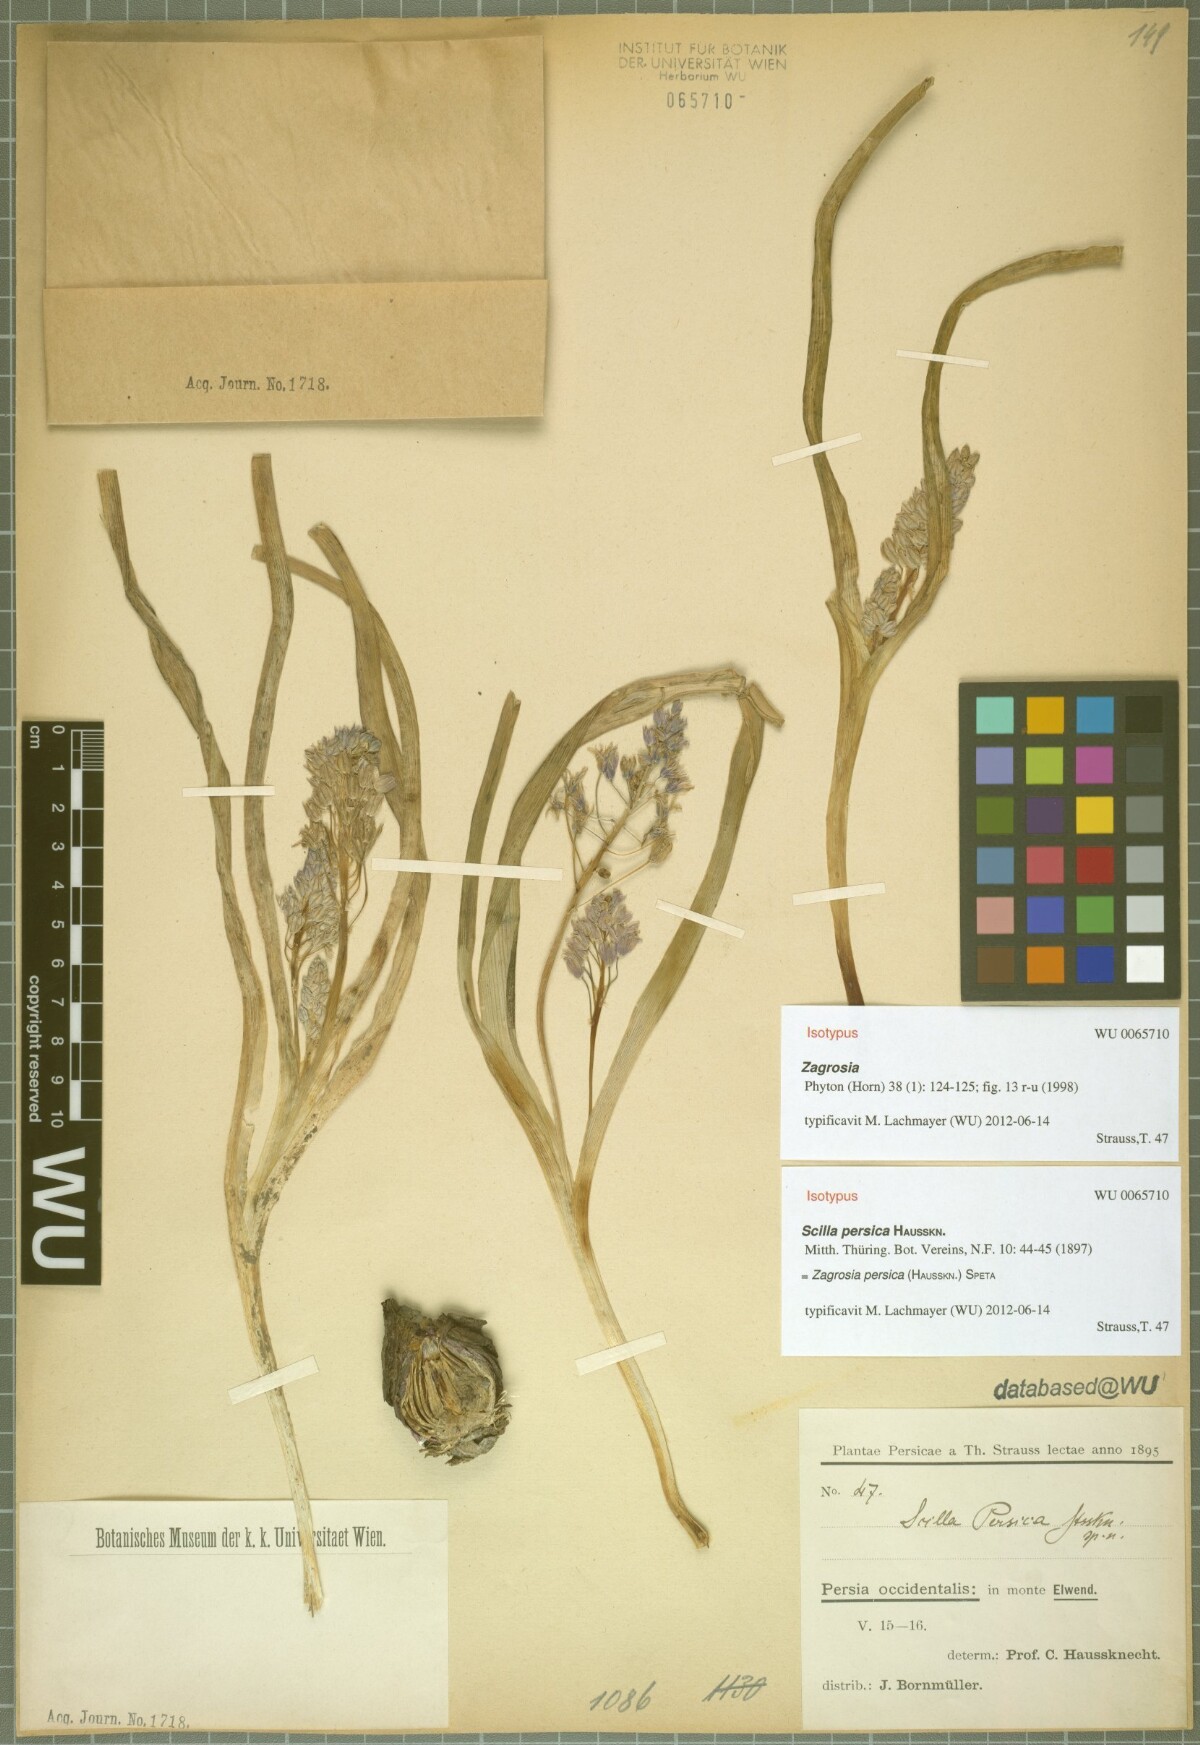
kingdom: Plantae
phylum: Tracheophyta
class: Liliopsida
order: Asparagales
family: Asparagaceae
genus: Zagrosia
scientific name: Zagrosia persica
